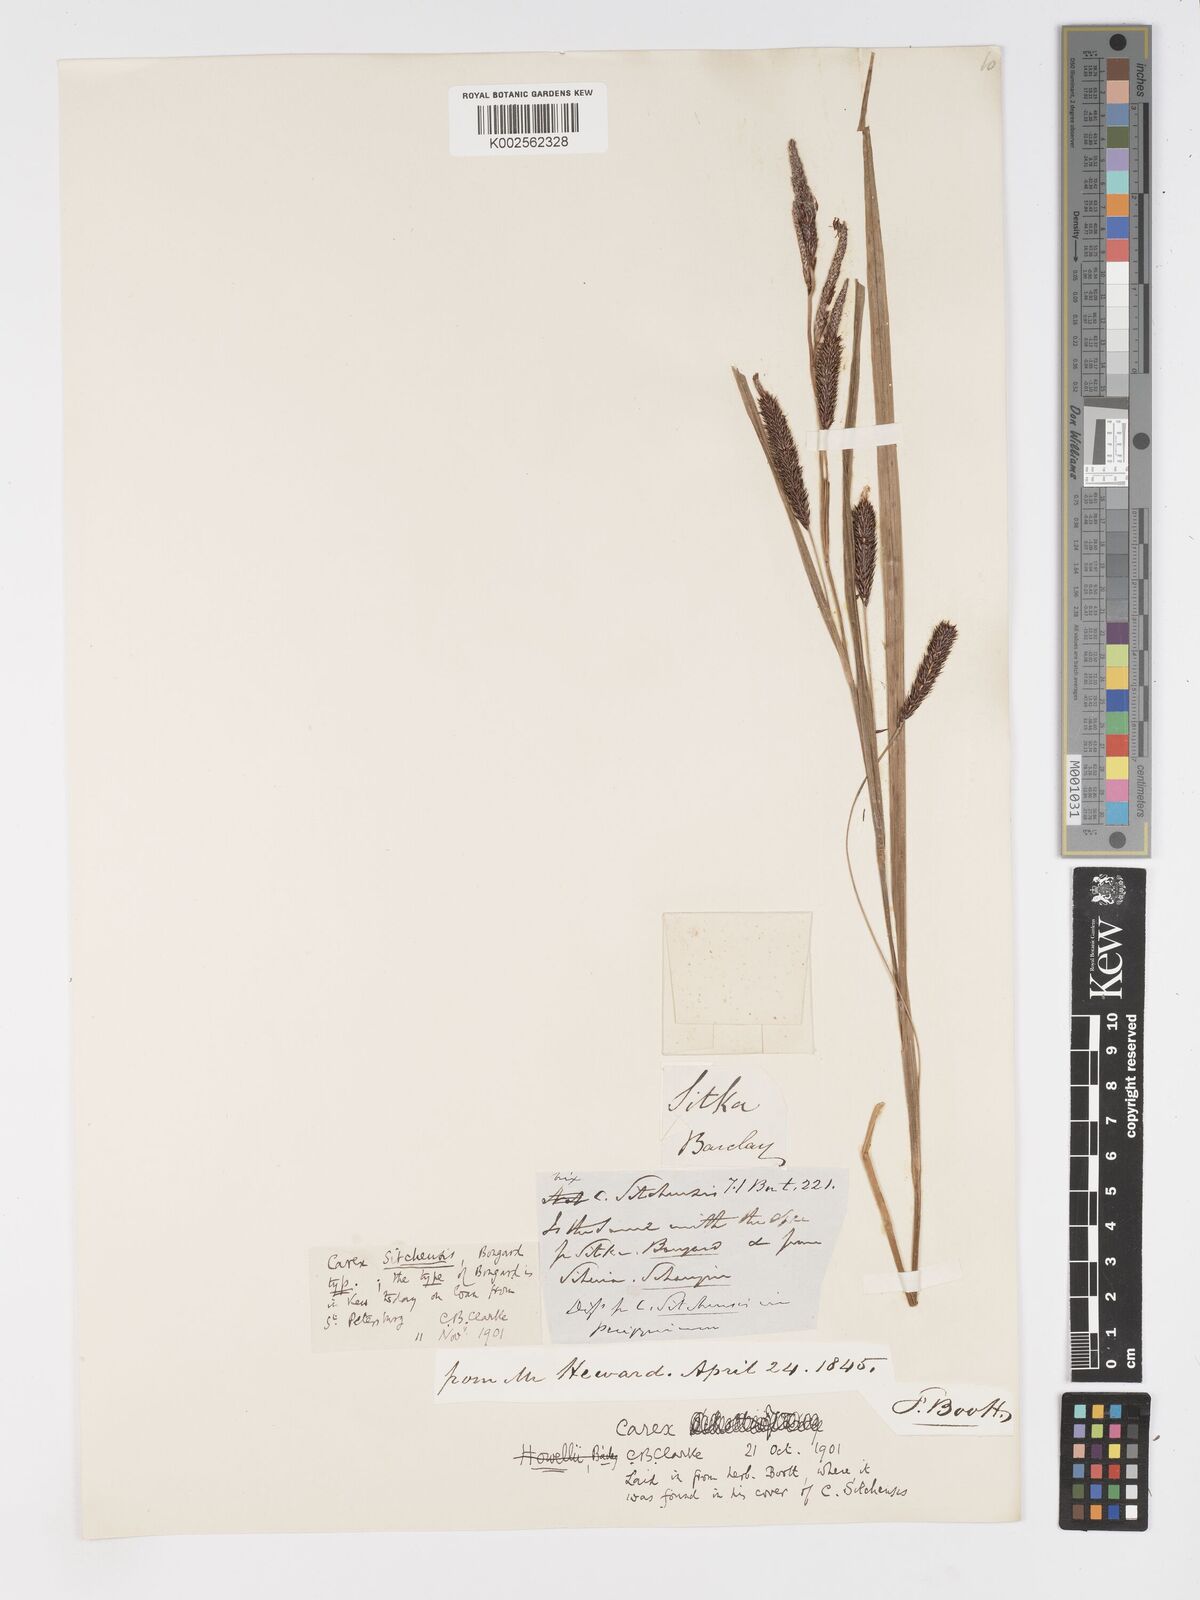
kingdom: Plantae
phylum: Tracheophyta
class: Liliopsida
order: Poales
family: Cyperaceae
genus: Carex
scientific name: Carex aquatilis
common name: Water sedge
